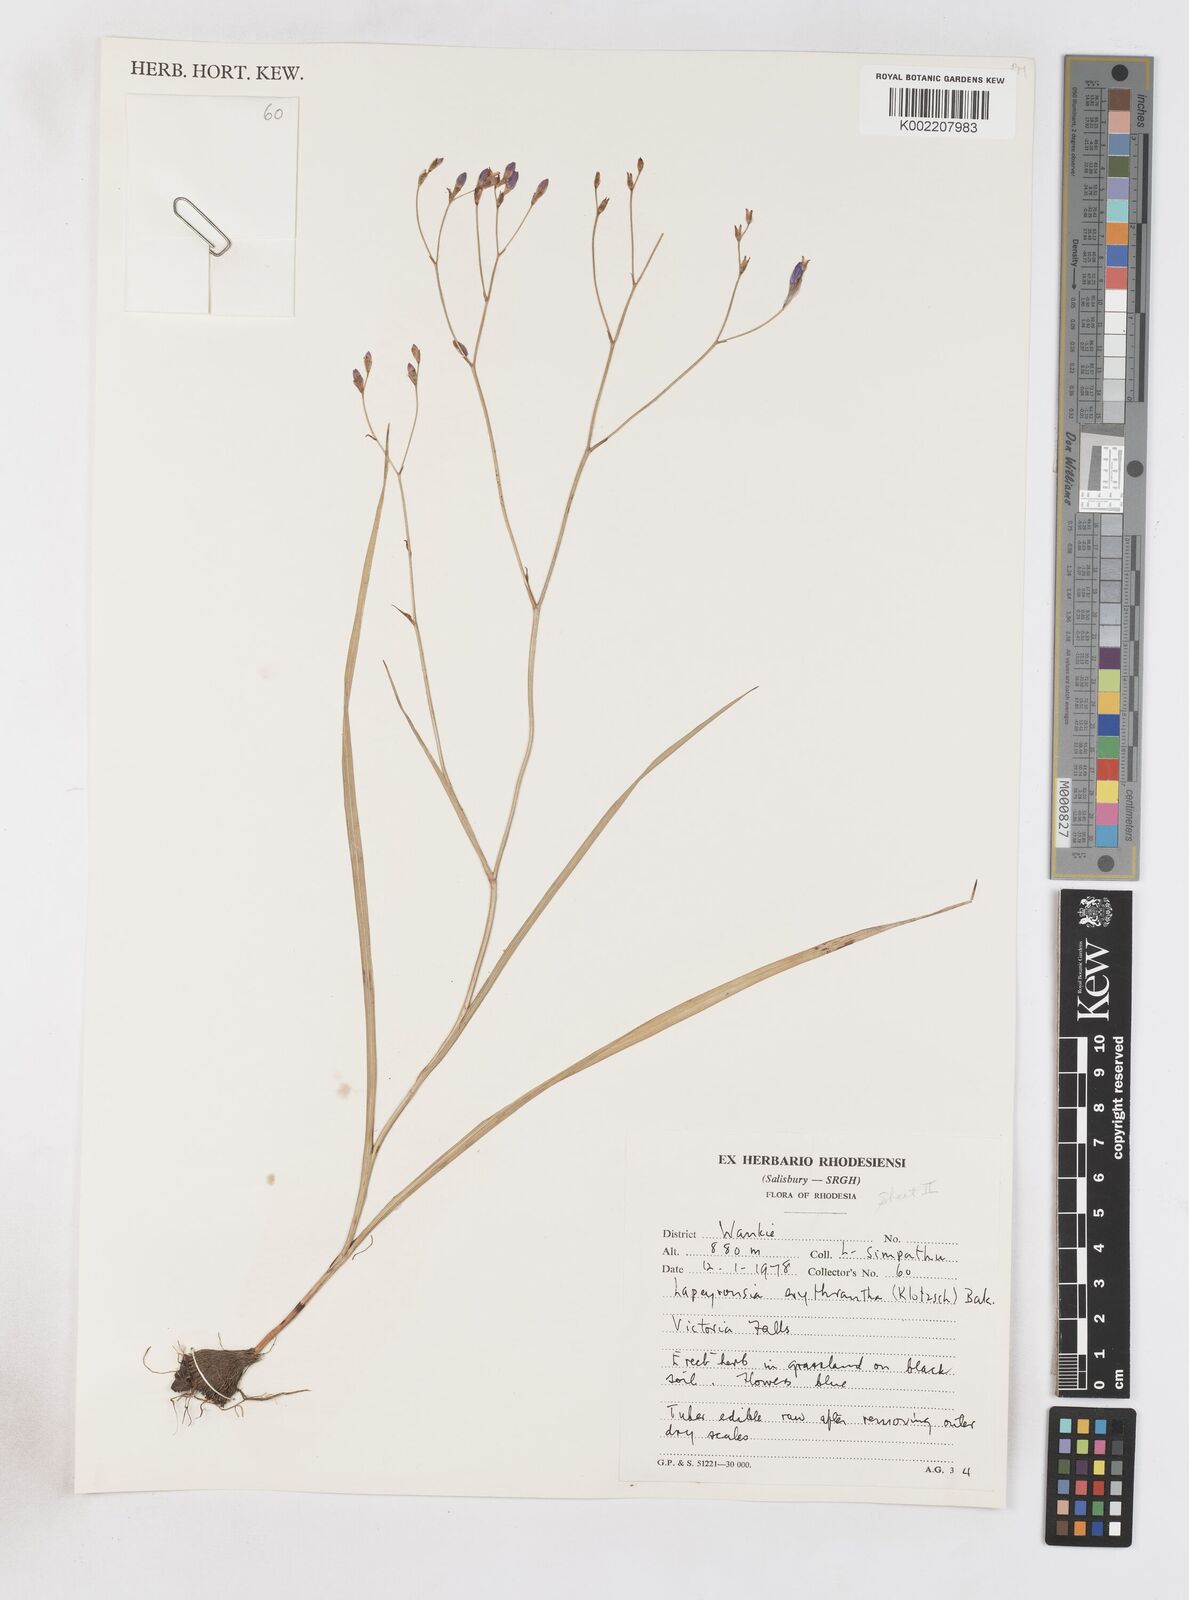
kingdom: Plantae
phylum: Tracheophyta
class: Liliopsida
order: Asparagales
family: Iridaceae
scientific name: Iridaceae
